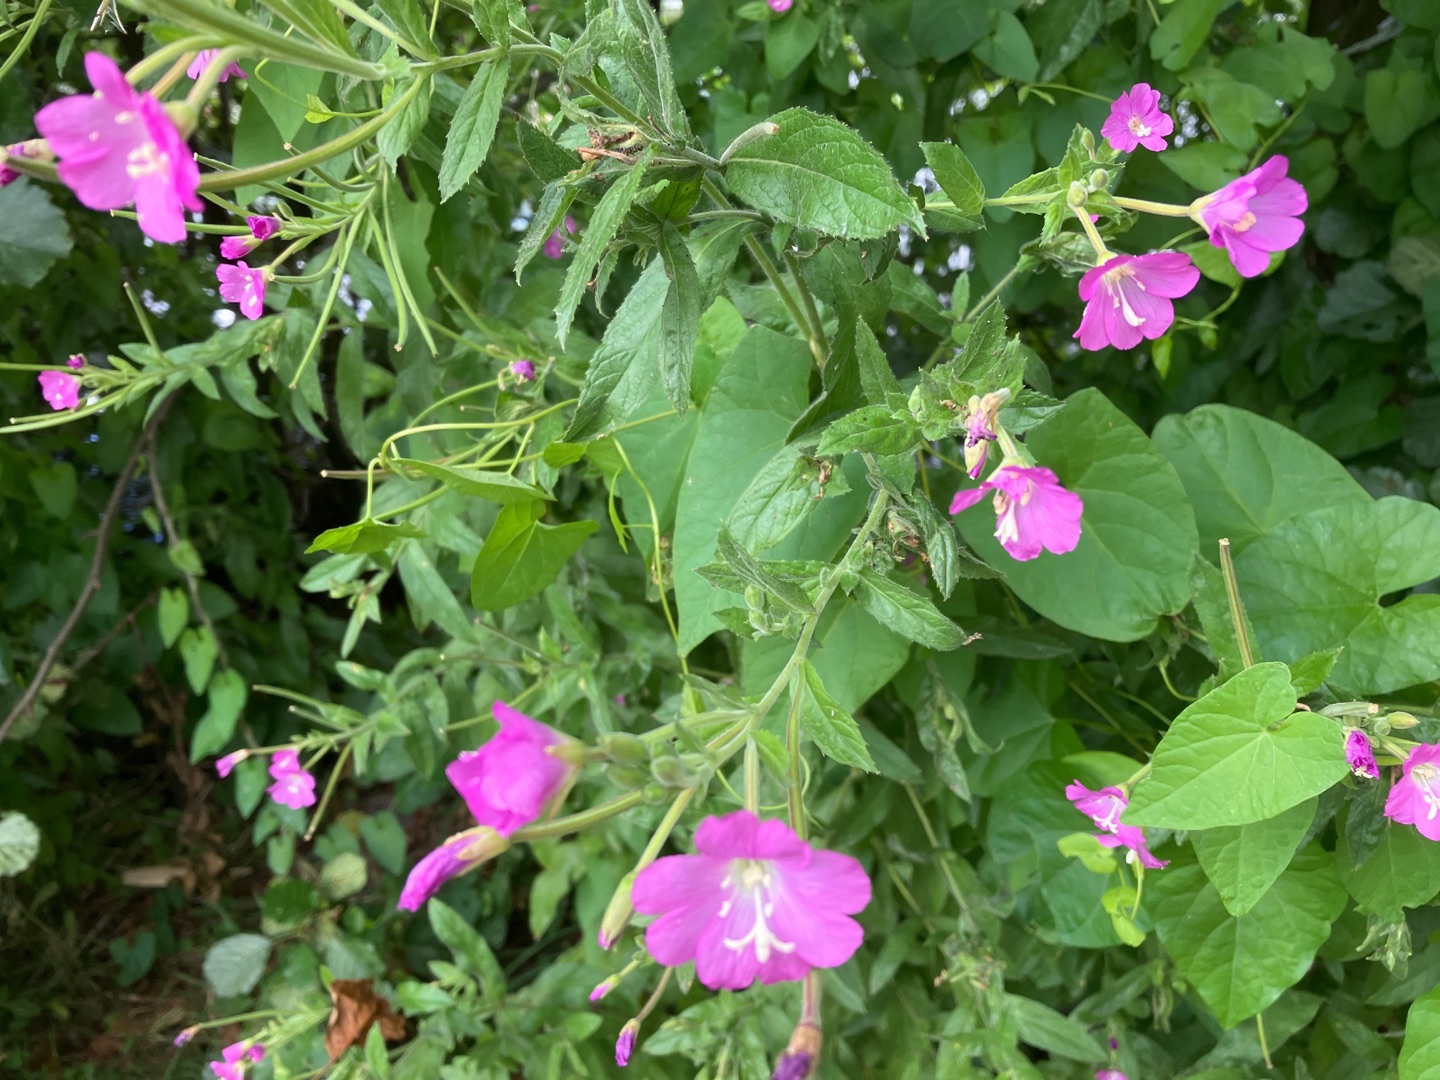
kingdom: Plantae
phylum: Tracheophyta
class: Magnoliopsida
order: Myrtales
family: Onagraceae
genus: Epilobium
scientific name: Epilobium hirsutum
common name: Lådden dueurt
